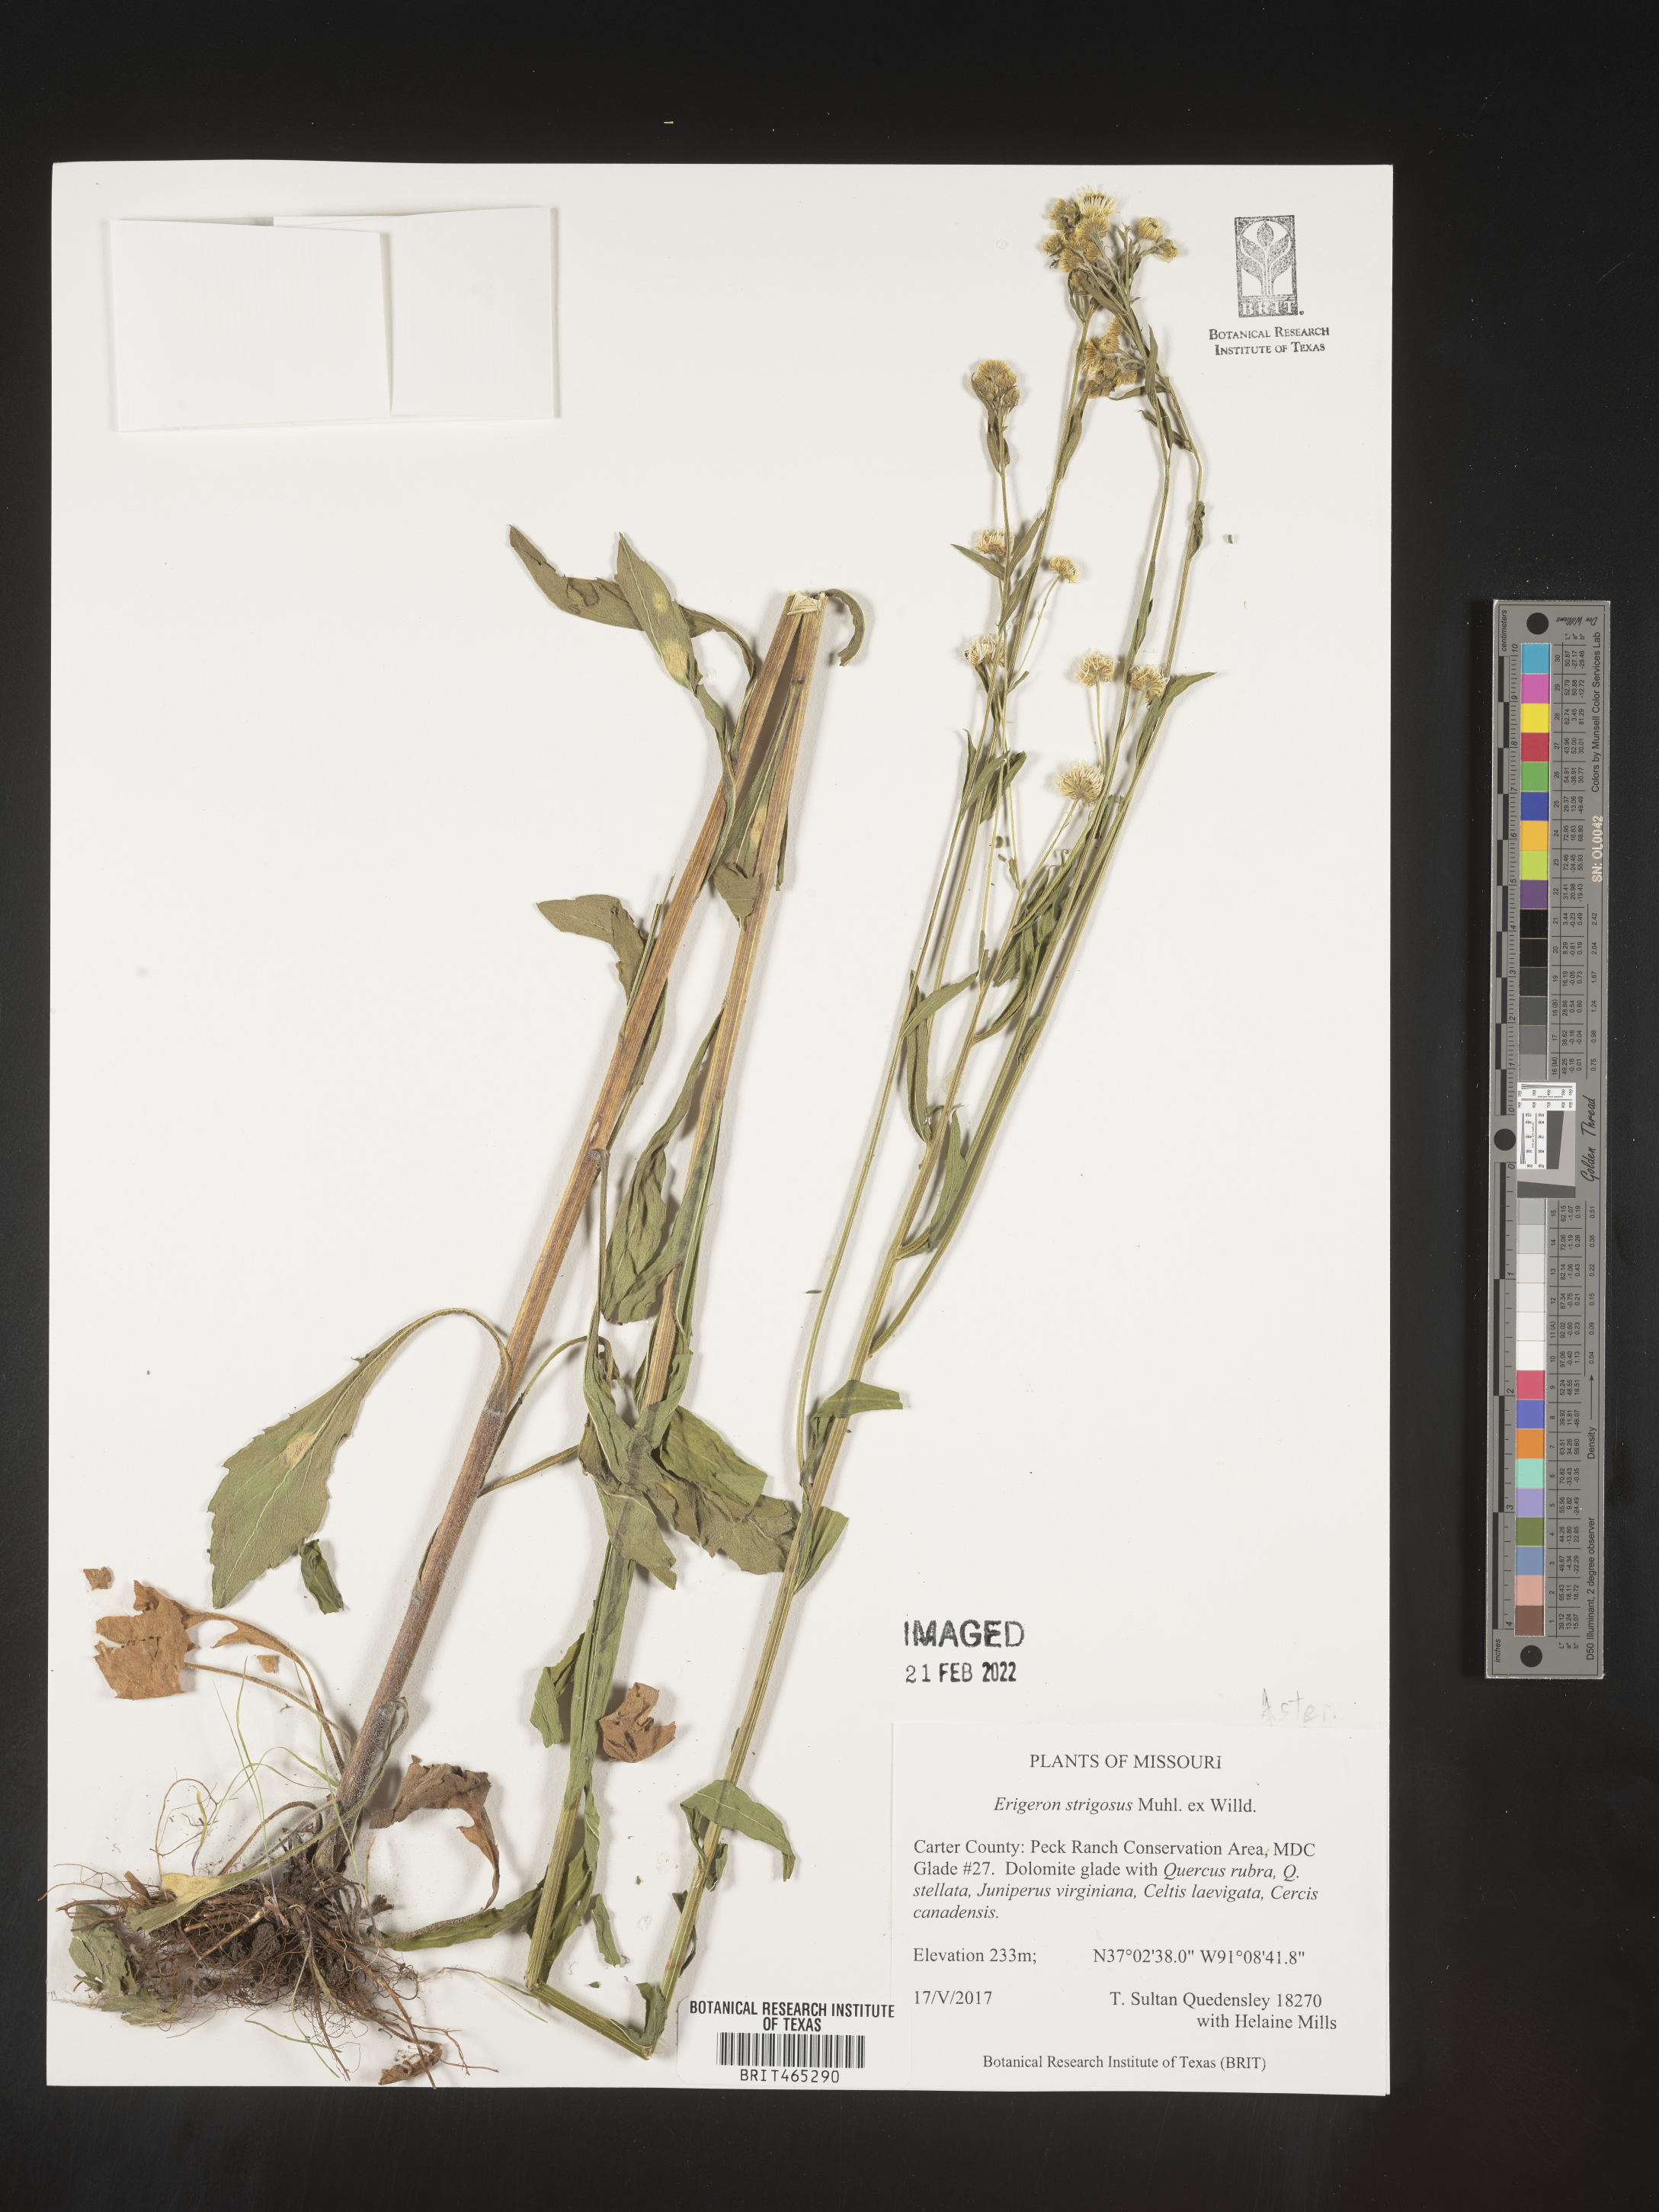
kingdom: Plantae
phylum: Tracheophyta
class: Magnoliopsida
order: Asterales
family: Asteraceae
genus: Erigeron
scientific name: Erigeron strigosus
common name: Common eastern fleabane
